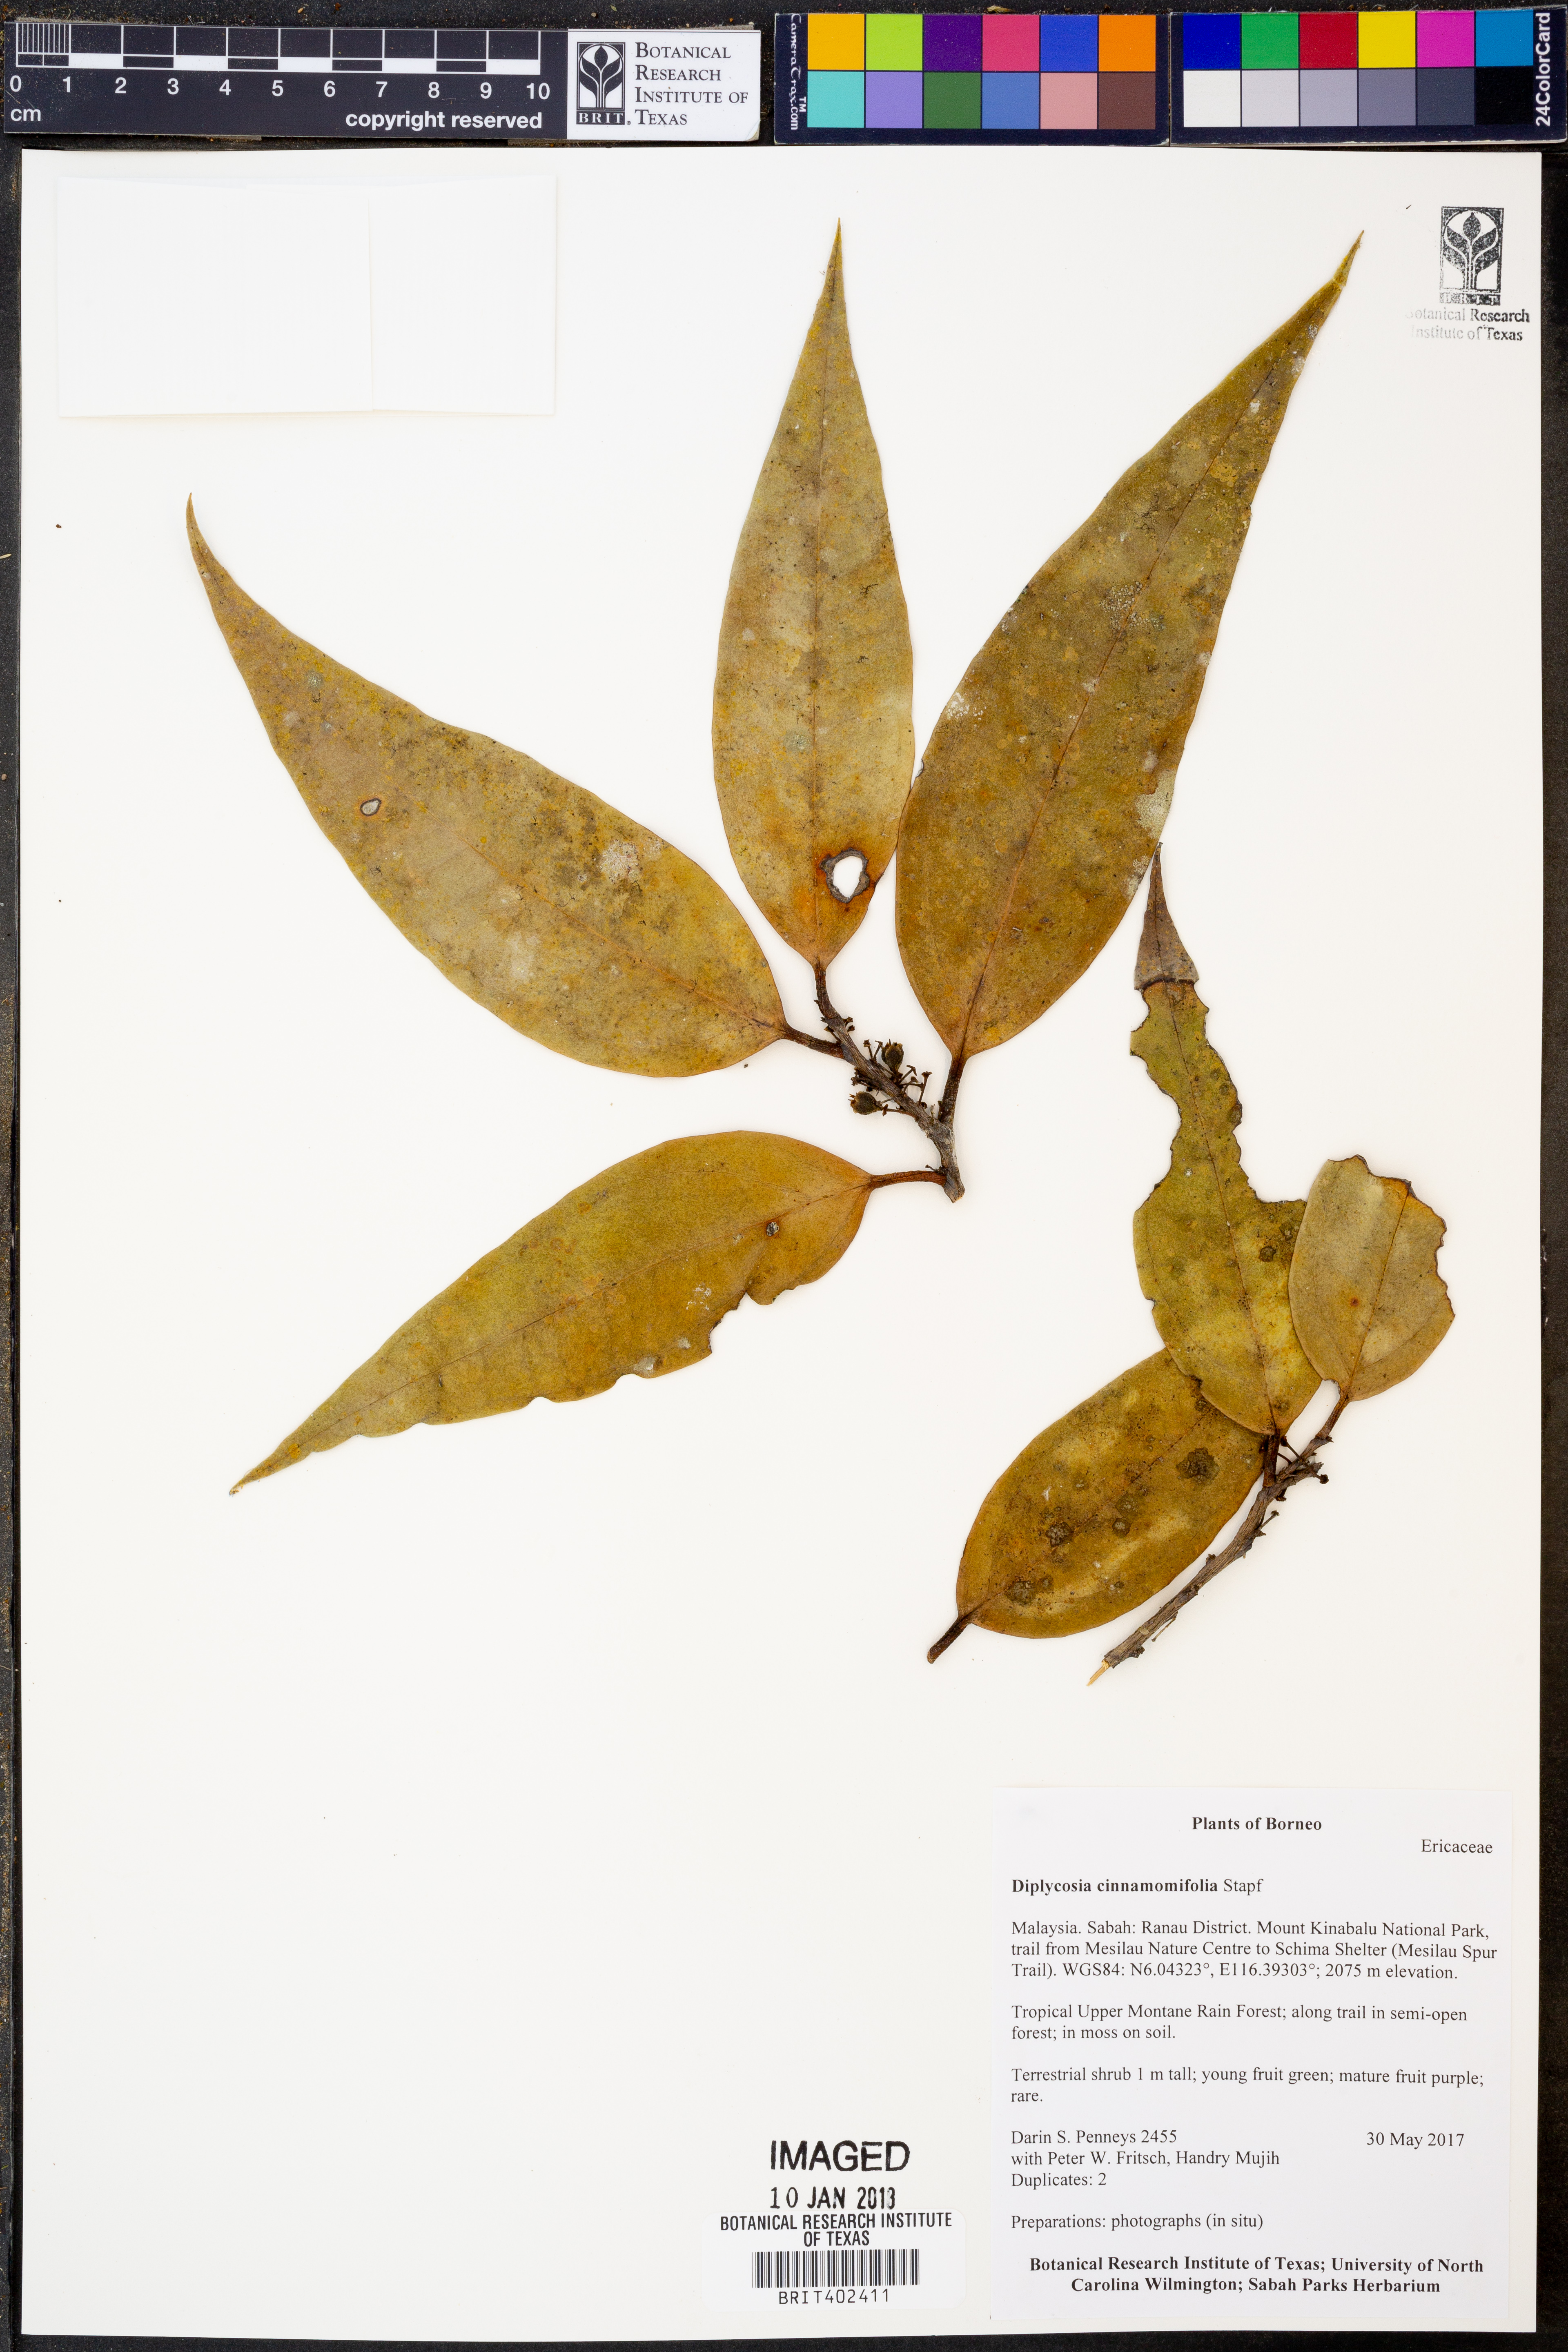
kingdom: Plantae
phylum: Tracheophyta
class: Magnoliopsida
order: Ericales
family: Ericaceae
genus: Gaultheria
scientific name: Gaultheria cinnamomifolia
